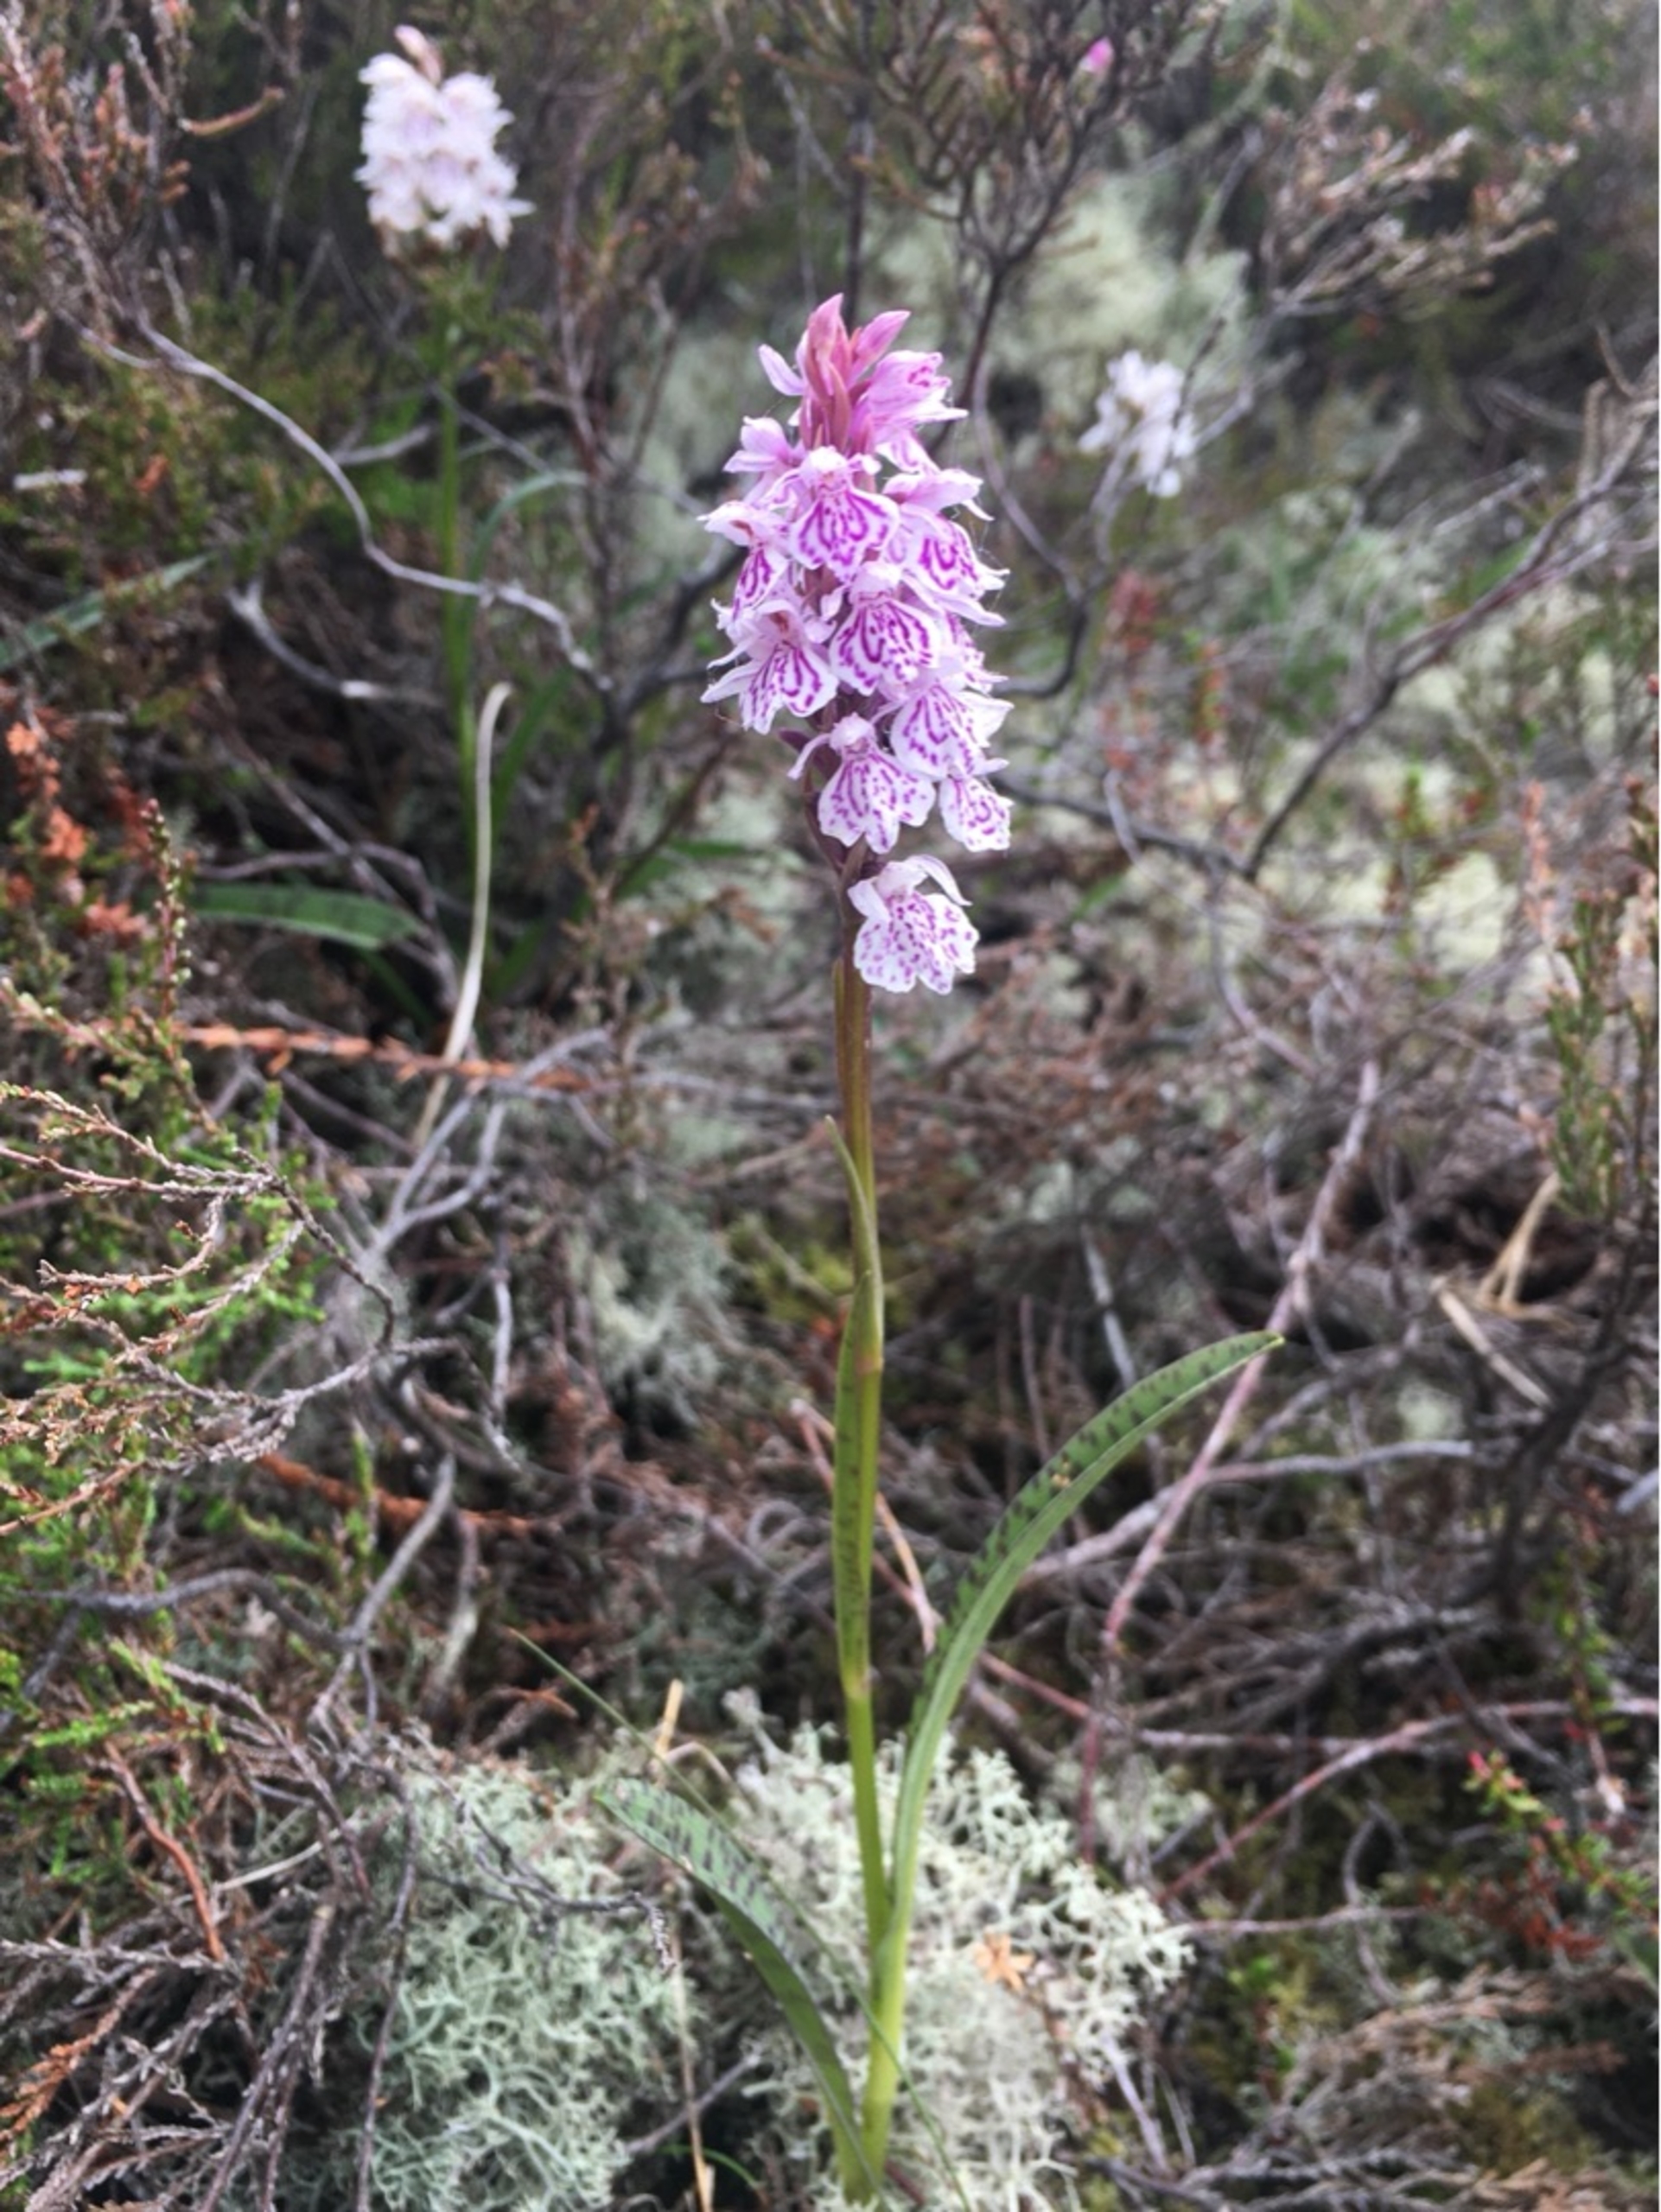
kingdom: Plantae
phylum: Tracheophyta
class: Liliopsida
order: Asparagales
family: Orchidaceae
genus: Dactylorhiza
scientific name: Dactylorhiza maculata
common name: Plettet gøgeurt
